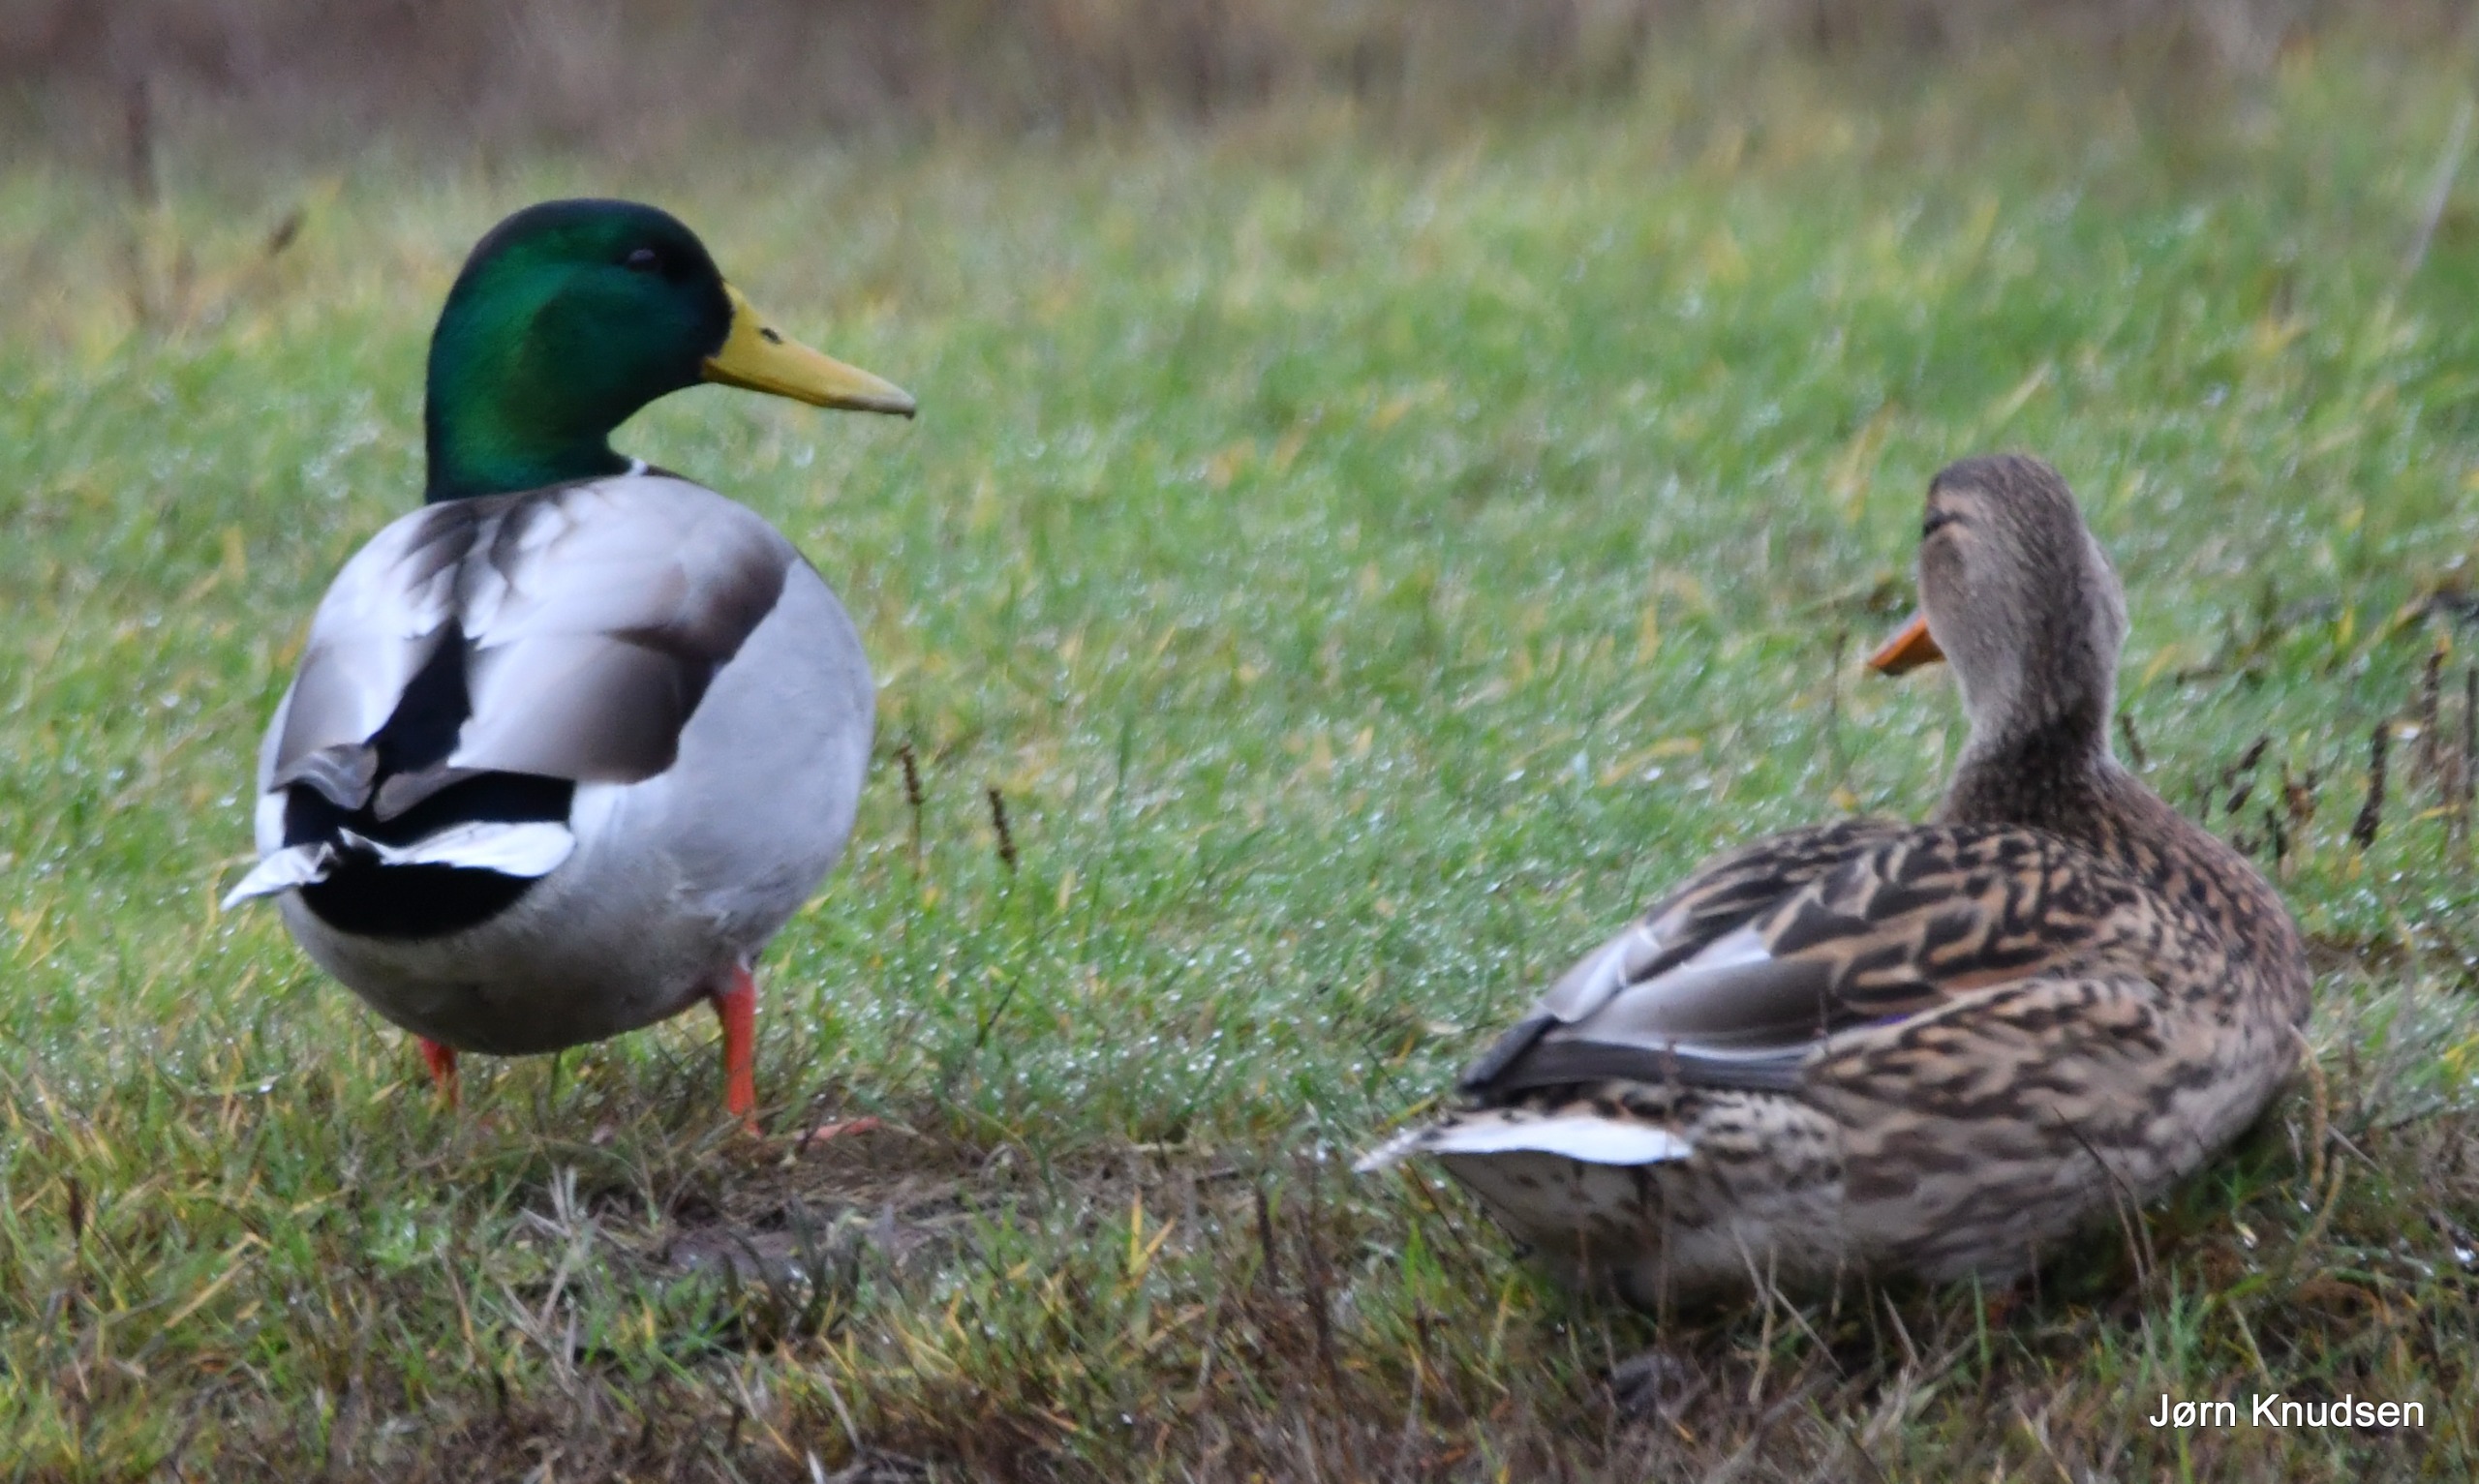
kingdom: Animalia
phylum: Chordata
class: Aves
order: Anseriformes
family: Anatidae
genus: Anas
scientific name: Anas platyrhynchos
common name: Gråand
